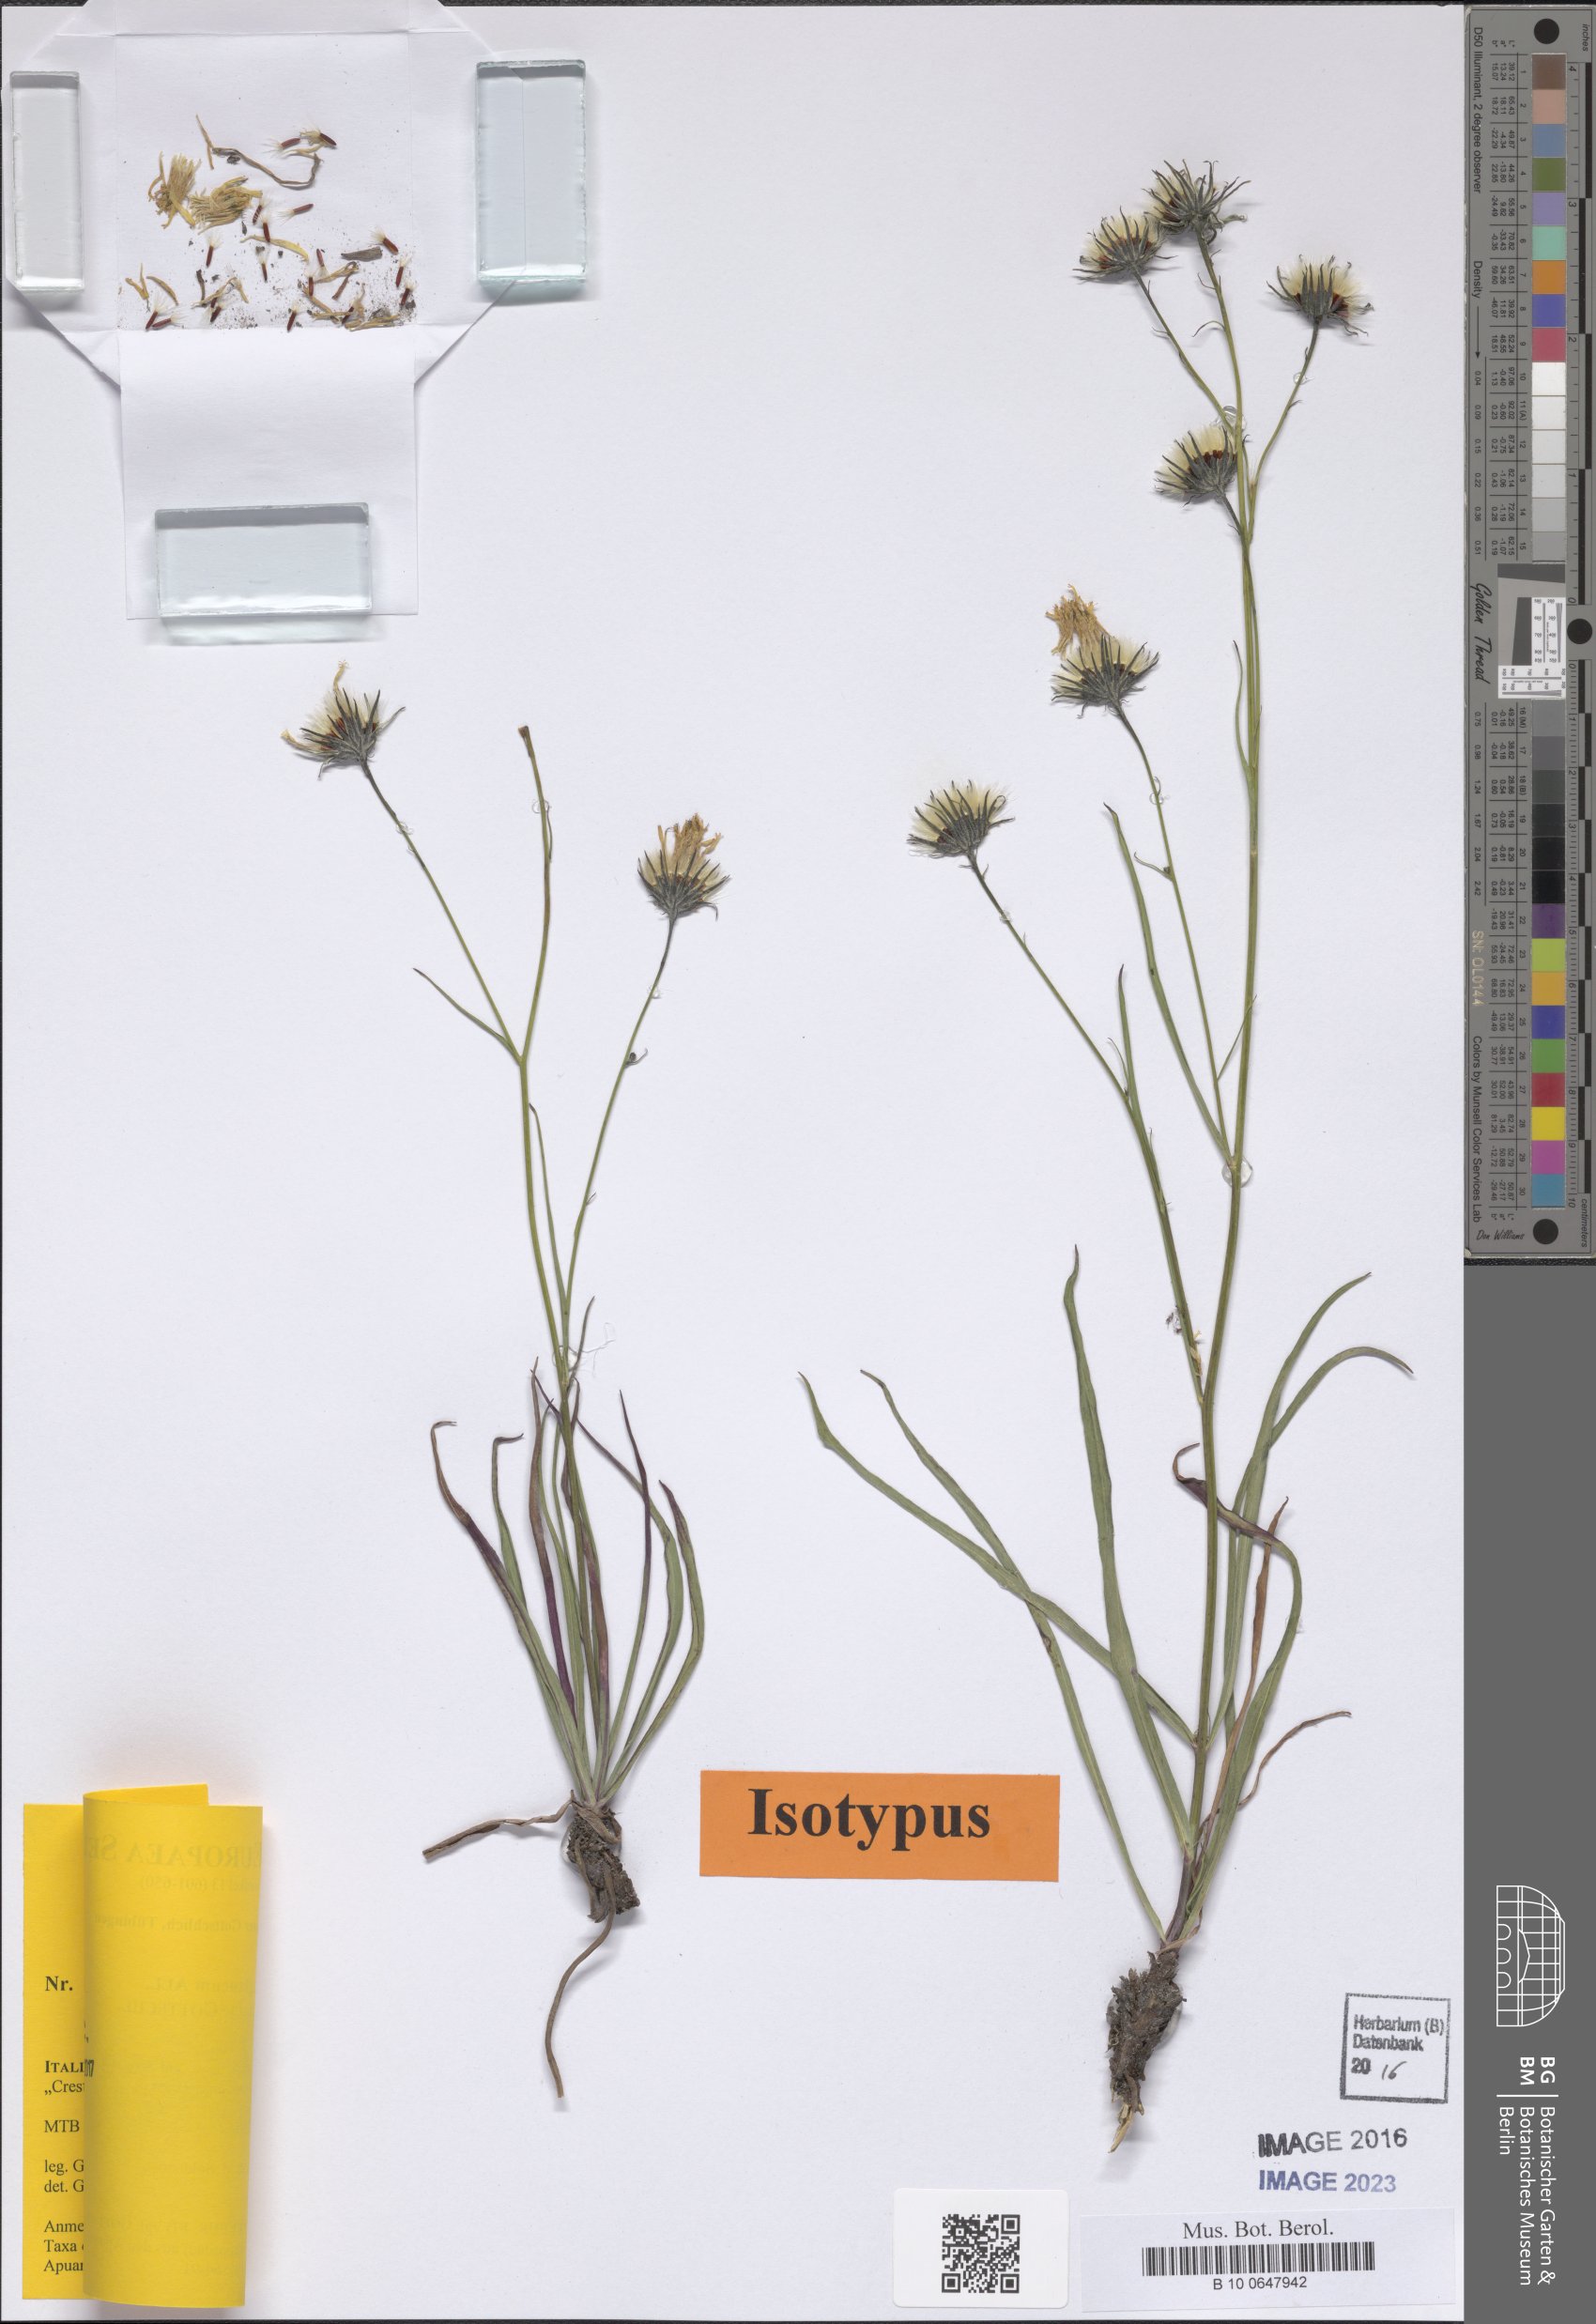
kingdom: Plantae
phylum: Tracheophyta
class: Magnoliopsida
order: Asterales
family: Asteraceae
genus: Hieracium
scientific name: Hieracium glaucum
